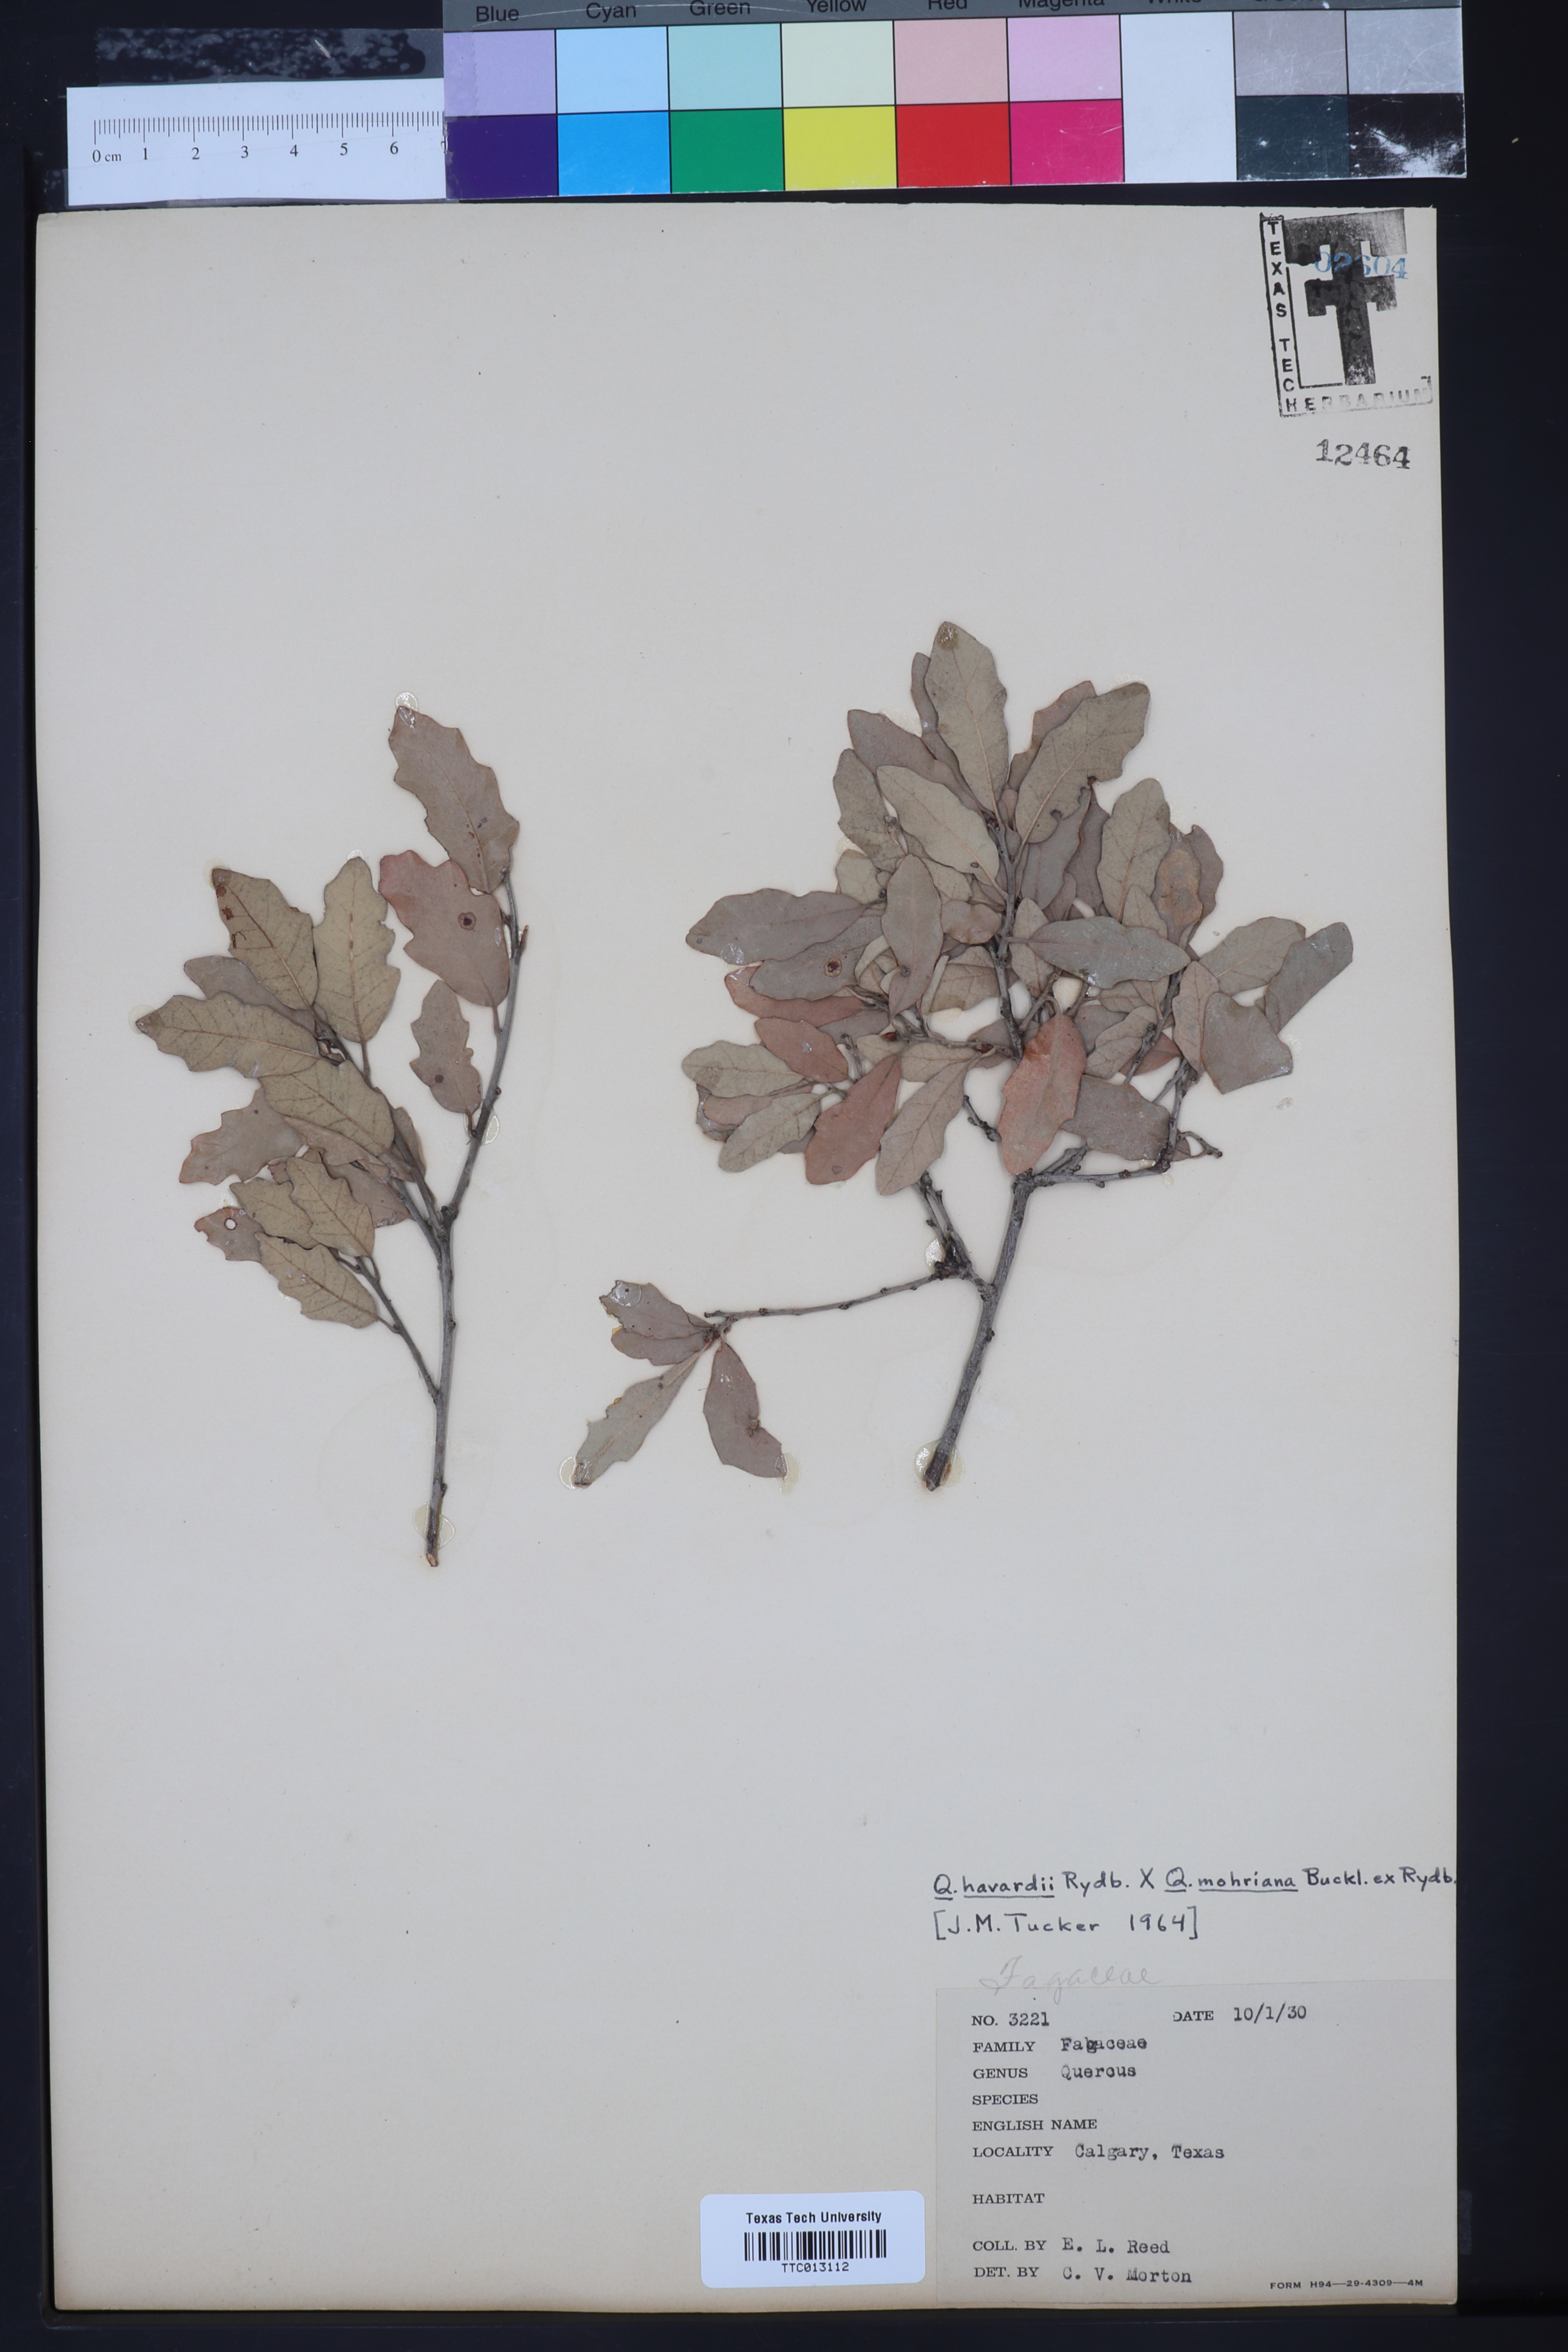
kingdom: Plantae
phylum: Tracheophyta
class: Magnoliopsida
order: Fagales
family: Fagaceae
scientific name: Fagaceae
